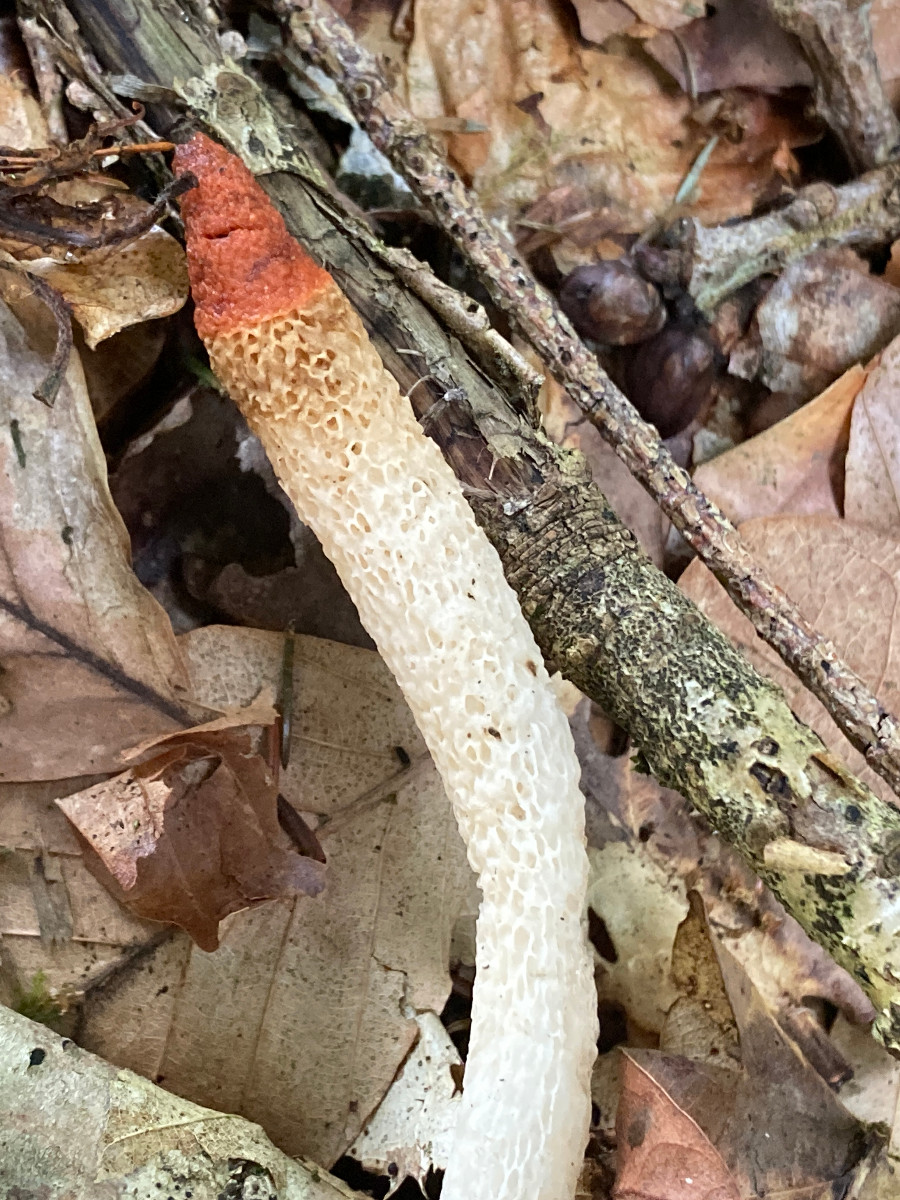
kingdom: Fungi
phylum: Basidiomycota
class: Agaricomycetes
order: Phallales
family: Phallaceae
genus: Mutinus
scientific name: Mutinus caninus
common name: hunde-stinksvamp
